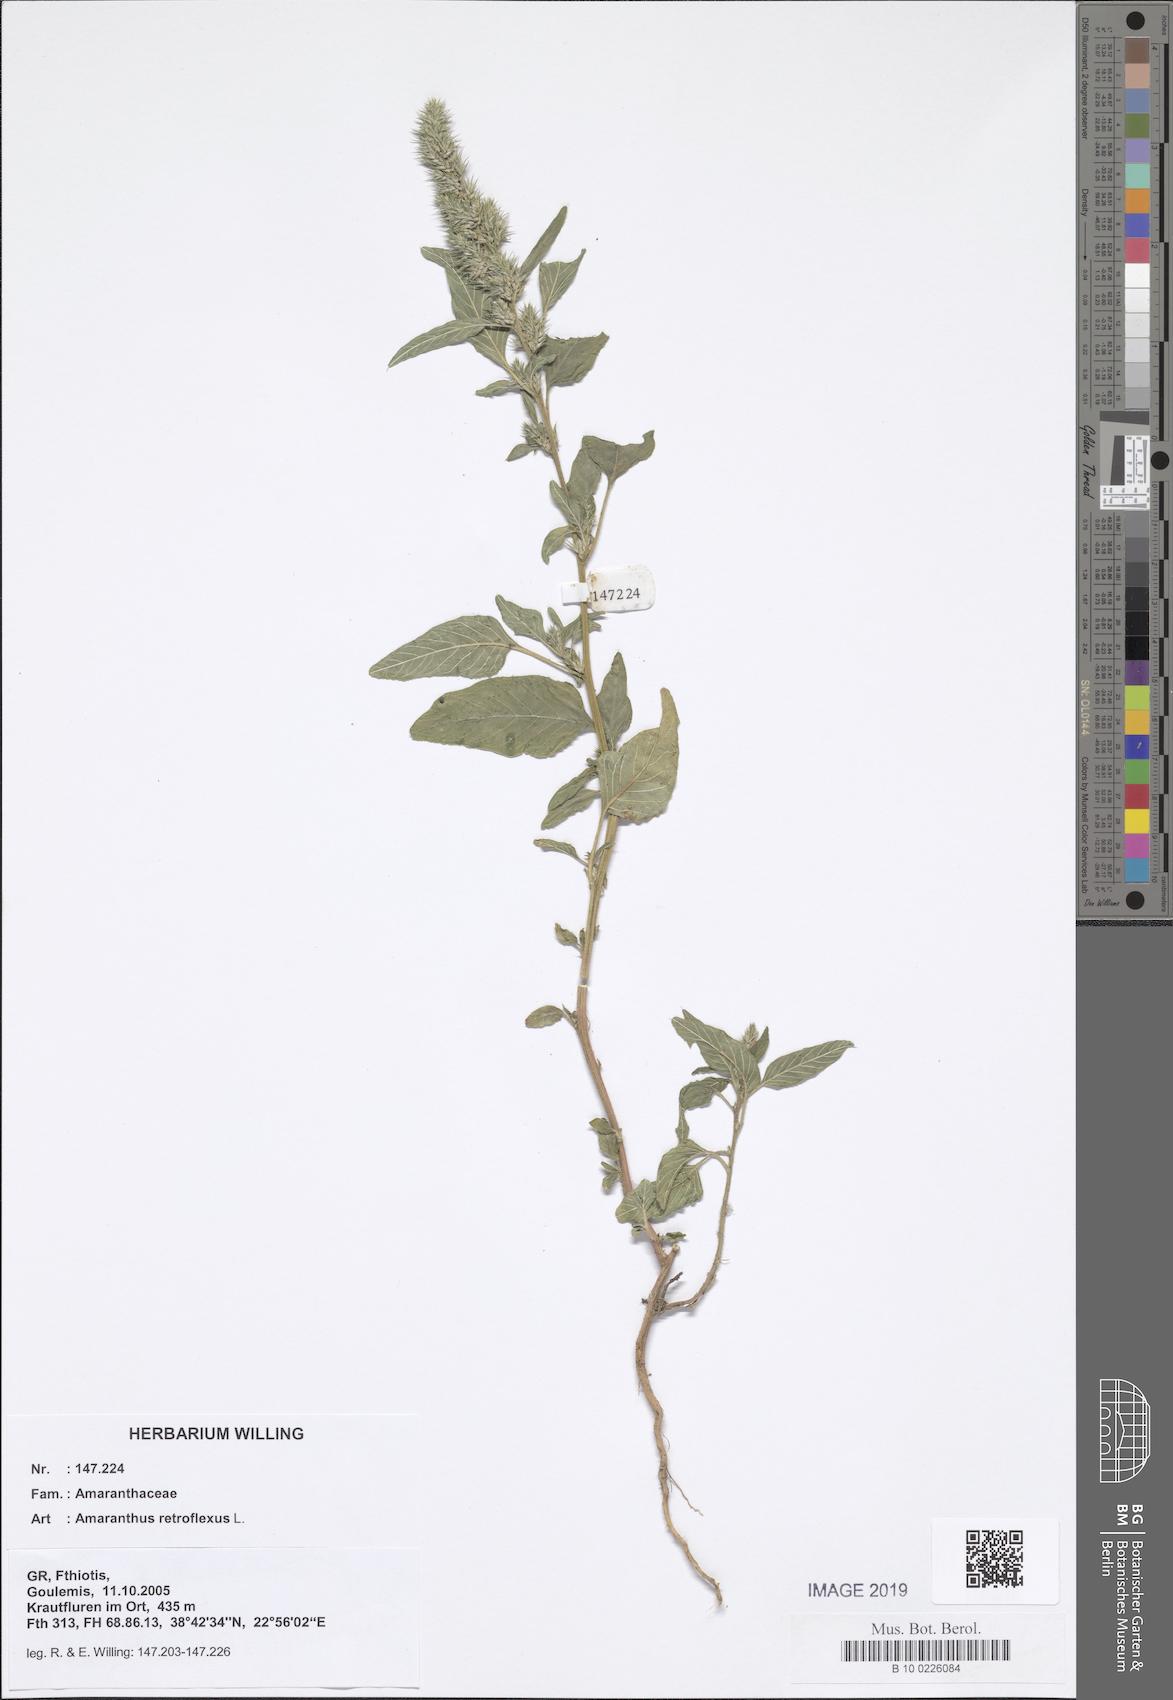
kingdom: Plantae
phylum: Tracheophyta
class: Magnoliopsida
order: Caryophyllales
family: Amaranthaceae
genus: Amaranthus
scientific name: Amaranthus retroflexus
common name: Redroot amaranth
